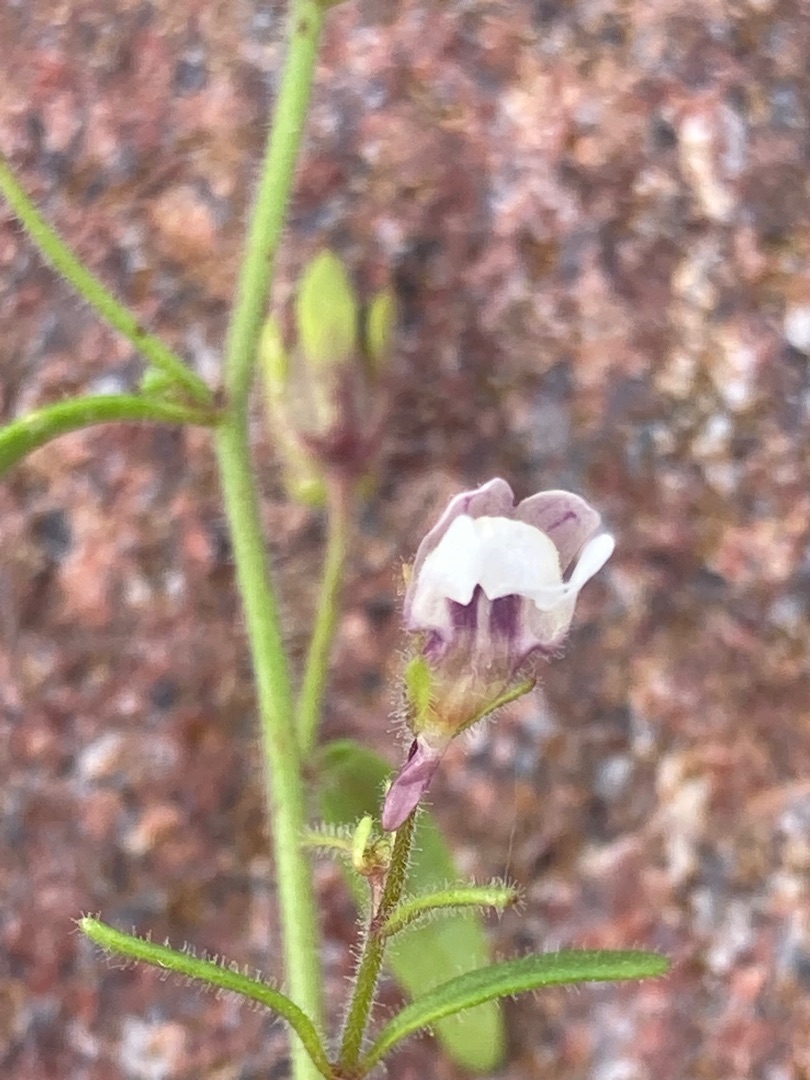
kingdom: Plantae
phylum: Tracheophyta
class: Magnoliopsida
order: Lamiales
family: Plantaginaceae
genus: Chaenorhinum
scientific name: Chaenorhinum minus
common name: Liden torskemund
